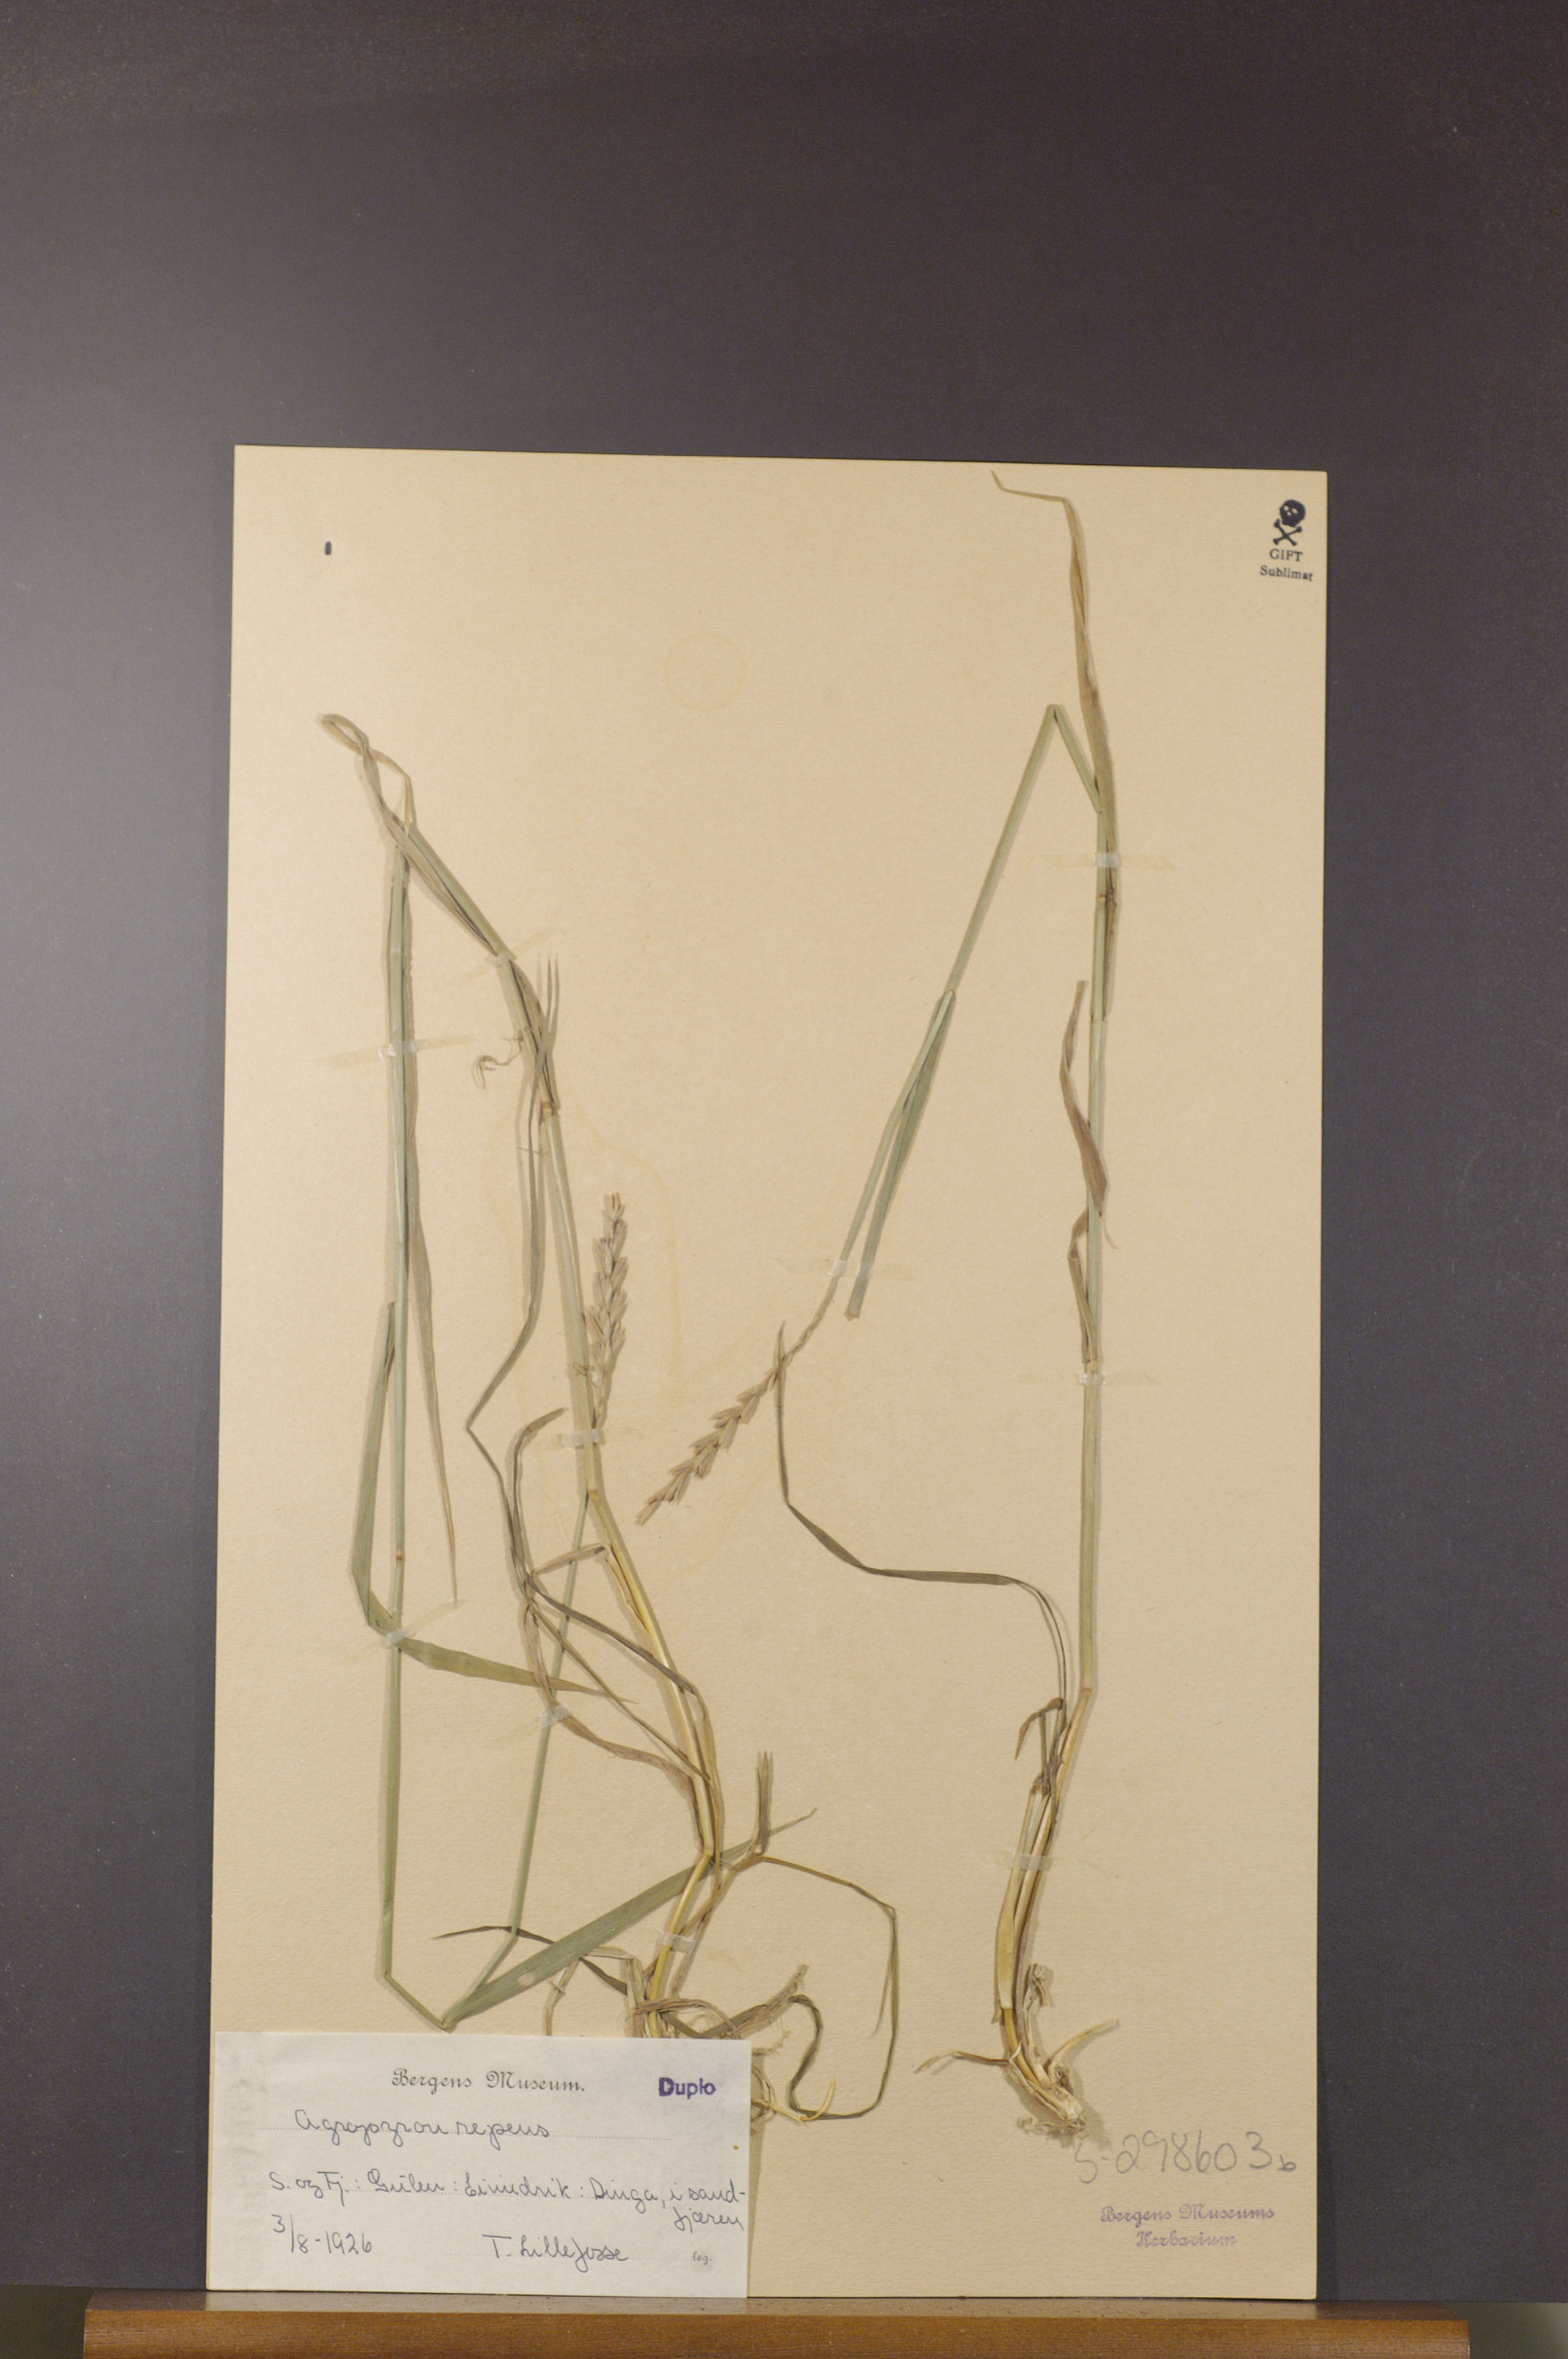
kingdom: Plantae
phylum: Tracheophyta
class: Liliopsida
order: Poales
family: Poaceae
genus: Elymus
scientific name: Elymus repens
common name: Quackgrass
